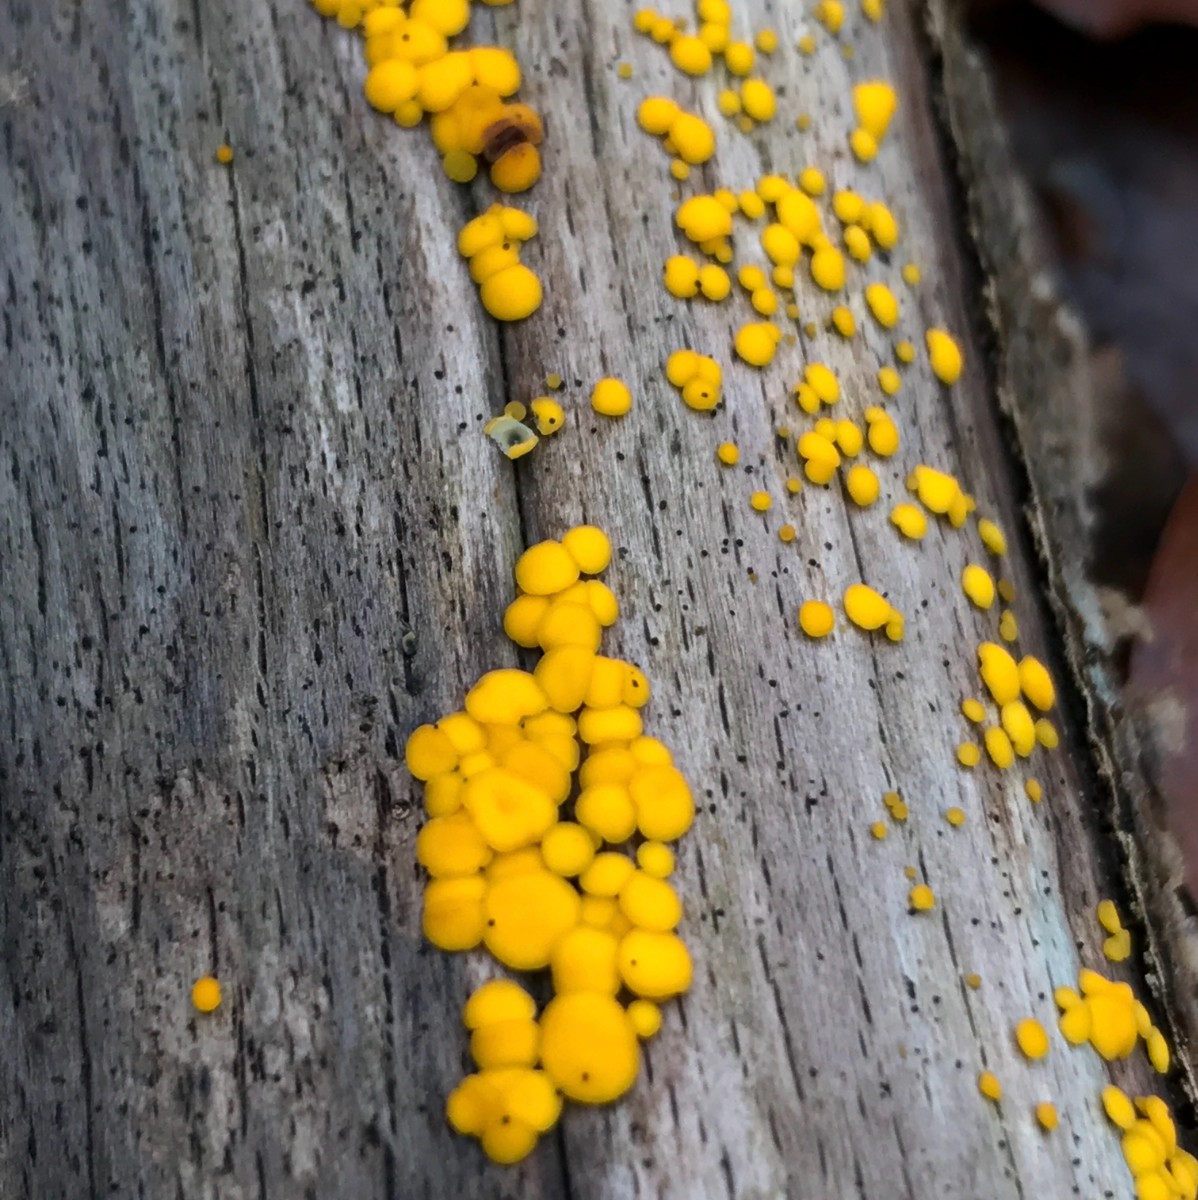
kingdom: Fungi
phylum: Ascomycota
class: Leotiomycetes
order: Helotiales
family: Pezizellaceae
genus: Calycina
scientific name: Calycina citrina
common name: almindelig gulskive
